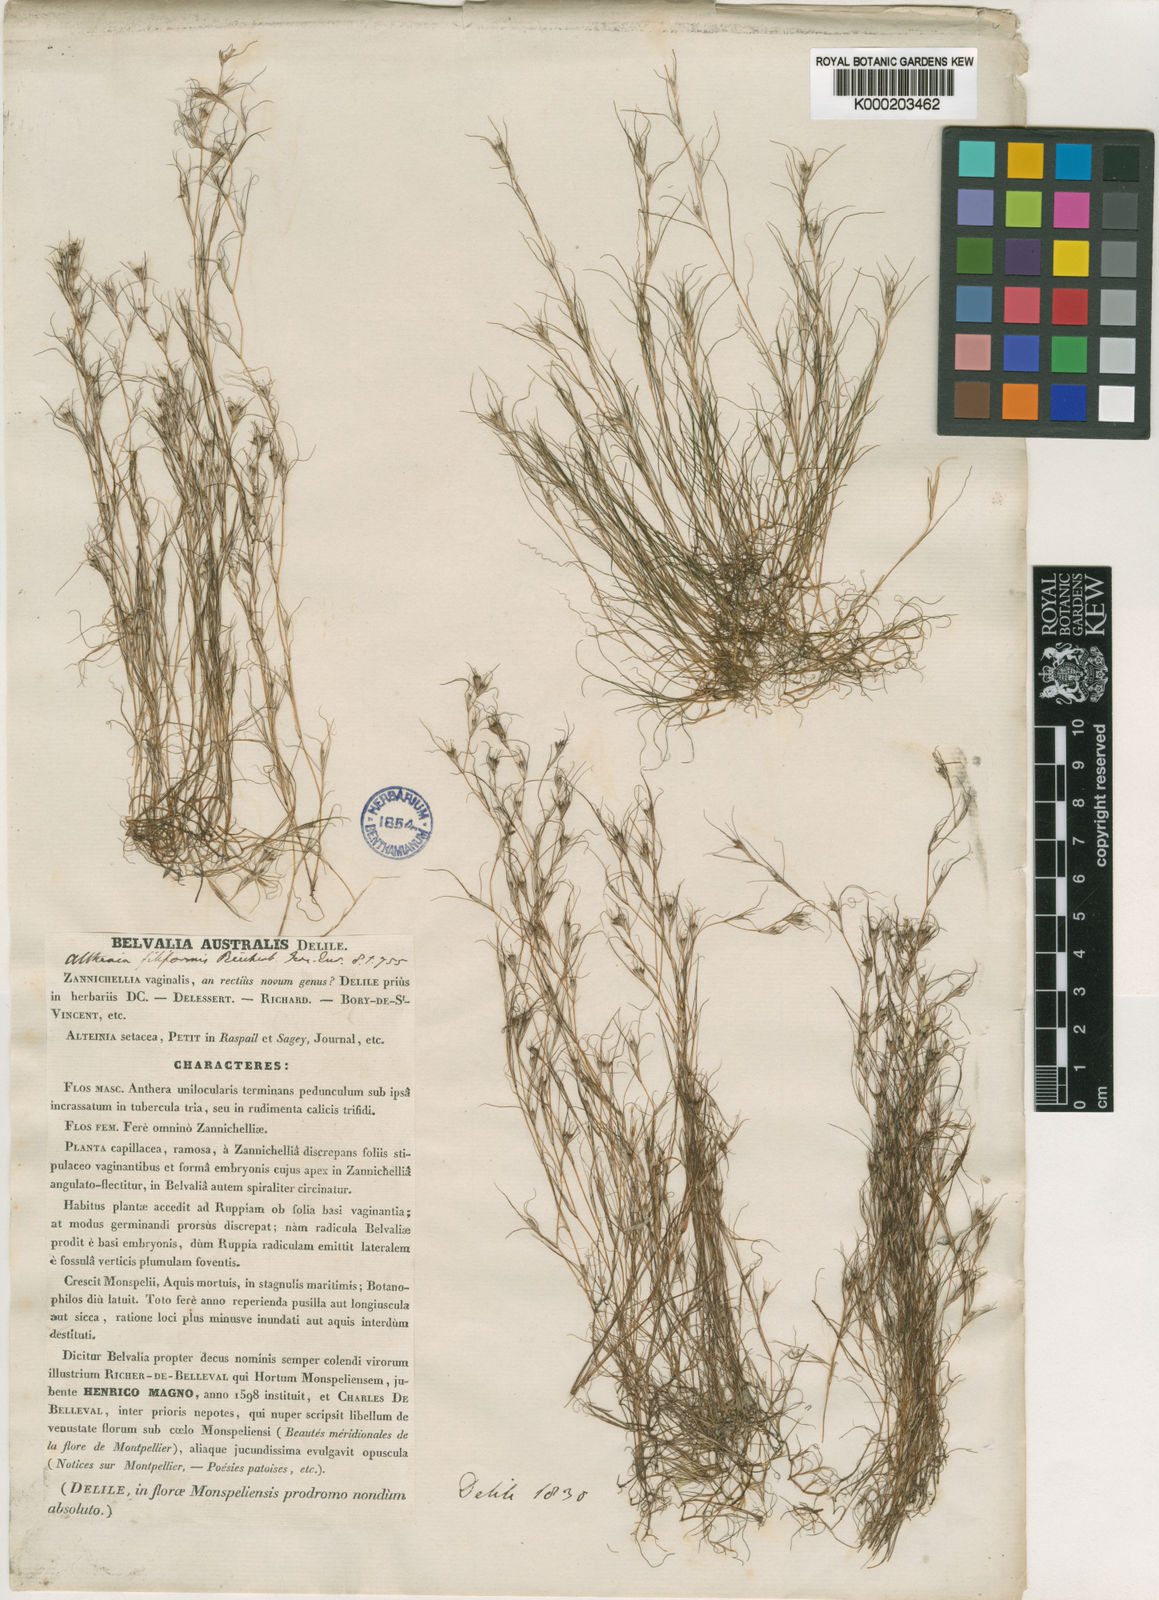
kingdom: Plantae
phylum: Tracheophyta
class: Liliopsida
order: Alismatales
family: Potamogetonaceae
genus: Althenia
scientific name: Althenia
